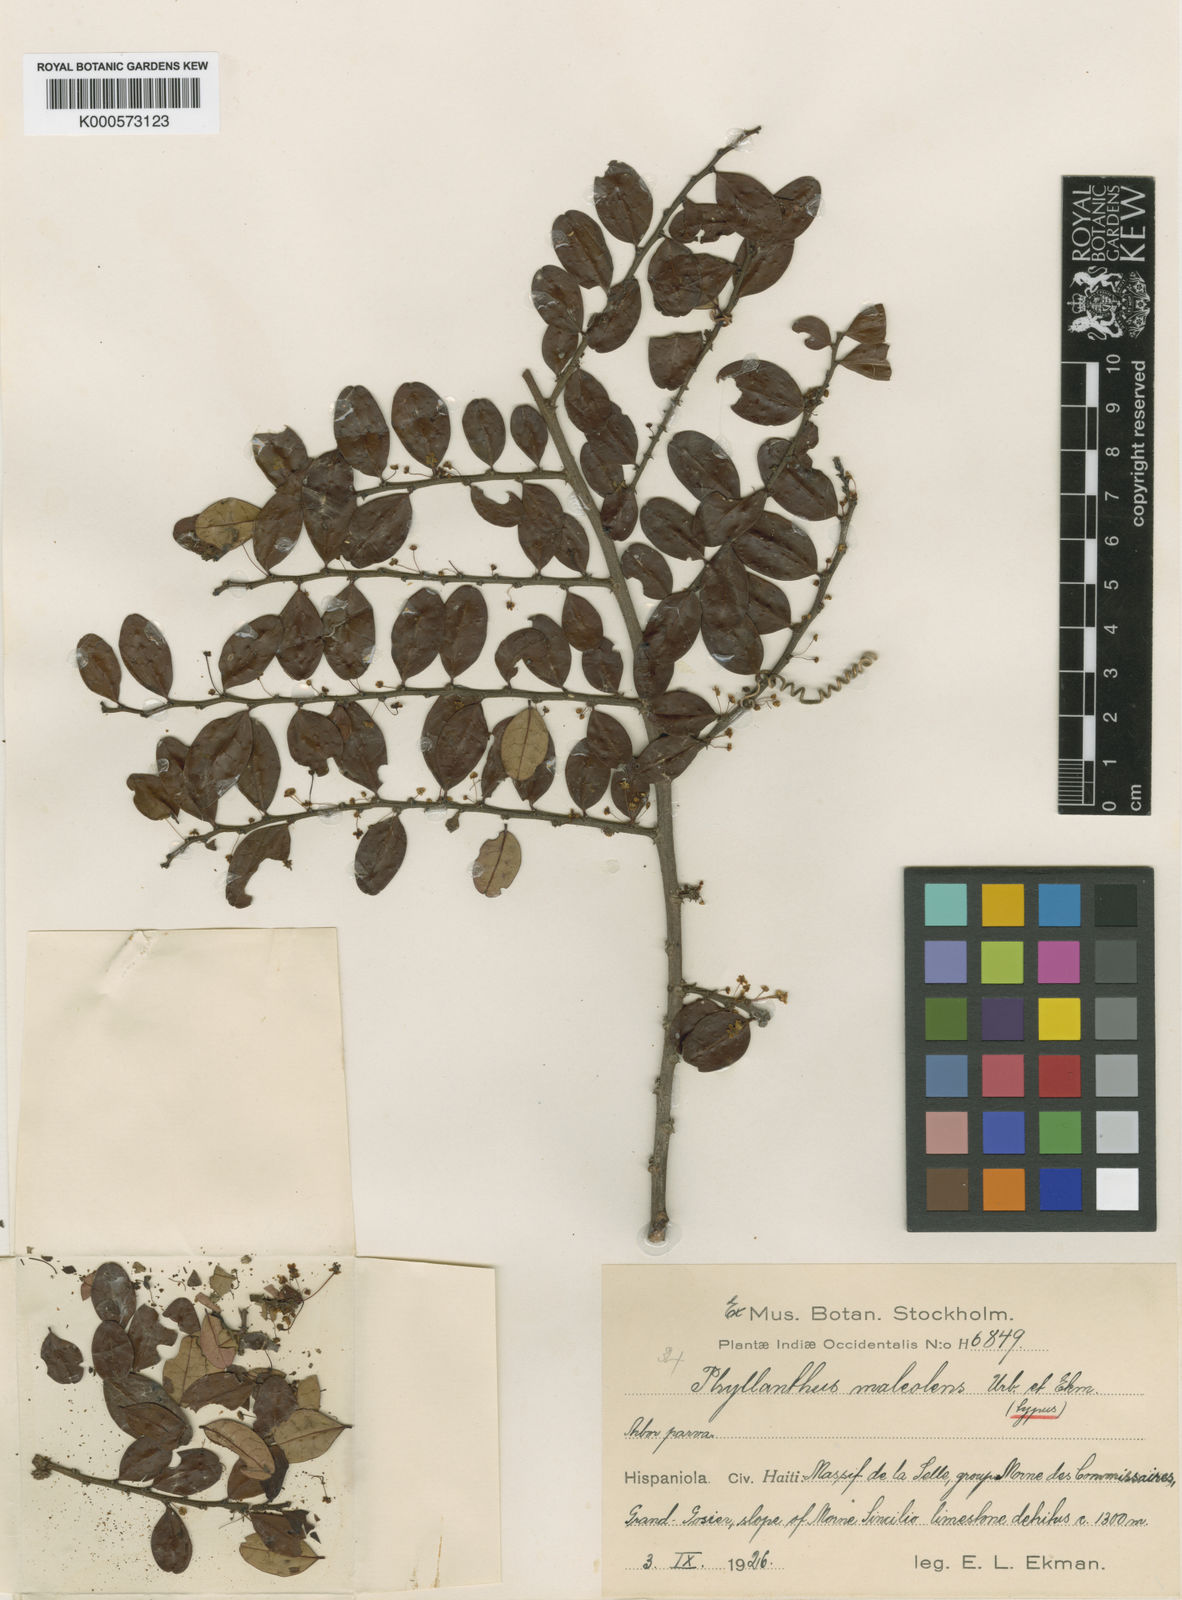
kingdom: Plantae
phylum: Tracheophyta
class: Magnoliopsida
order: Malpighiales
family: Phyllanthaceae
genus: Phyllanthus
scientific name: Phyllanthus maleolens
